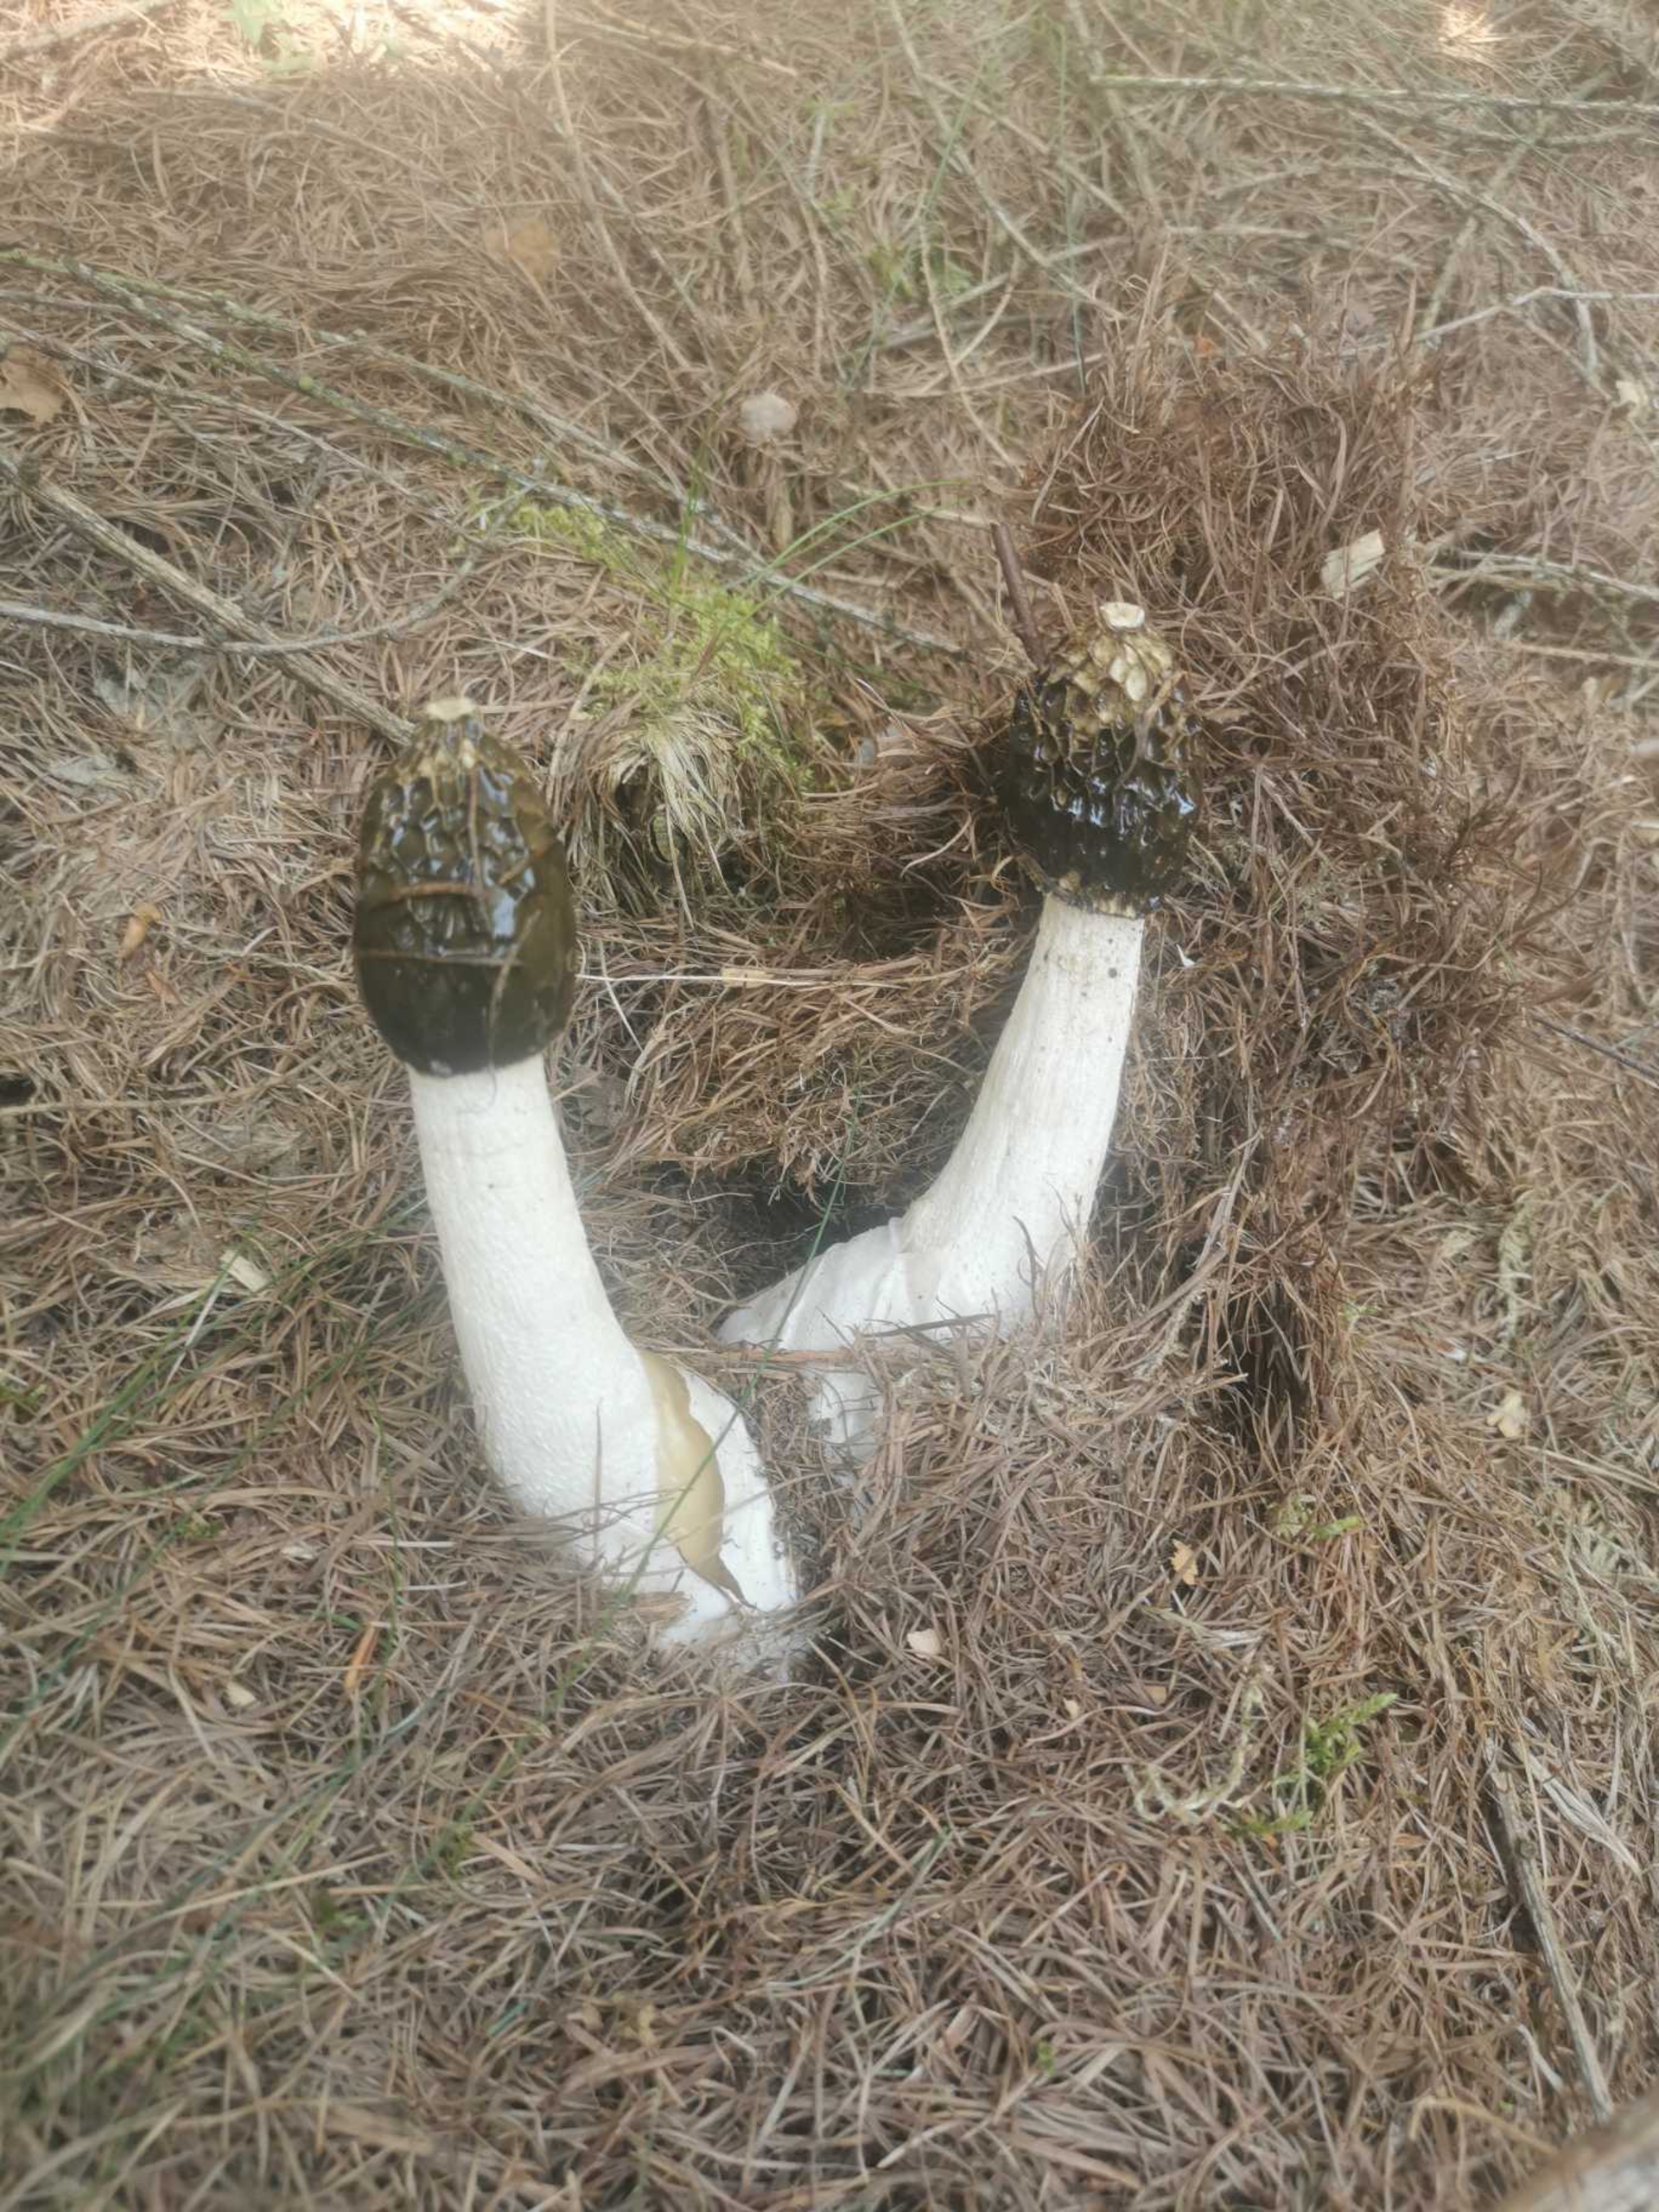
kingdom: Fungi
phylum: Basidiomycota
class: Agaricomycetes
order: Phallales
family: Phallaceae
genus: Phallus
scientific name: Phallus impudicus
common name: Almindelig stinksvamp
